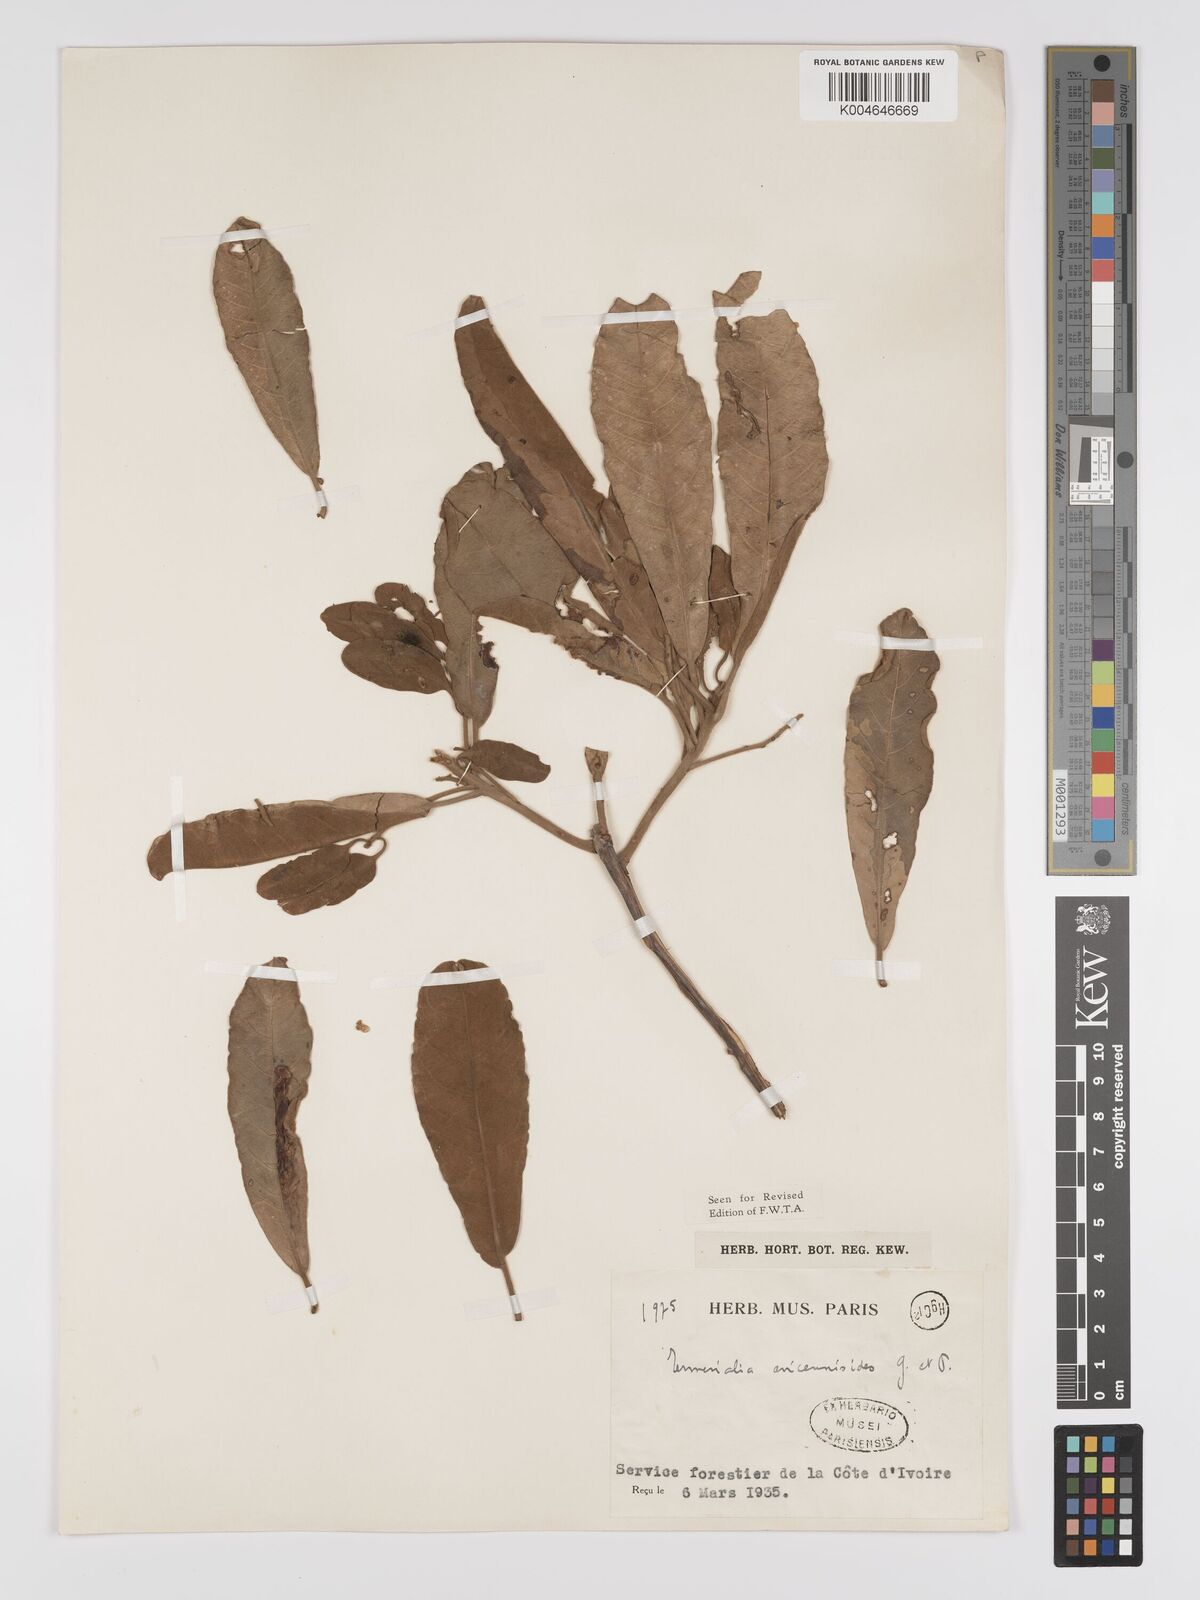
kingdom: Plantae
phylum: Tracheophyta
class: Magnoliopsida
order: Myrtales
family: Combretaceae
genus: Terminalia
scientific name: Terminalia avicennioides
